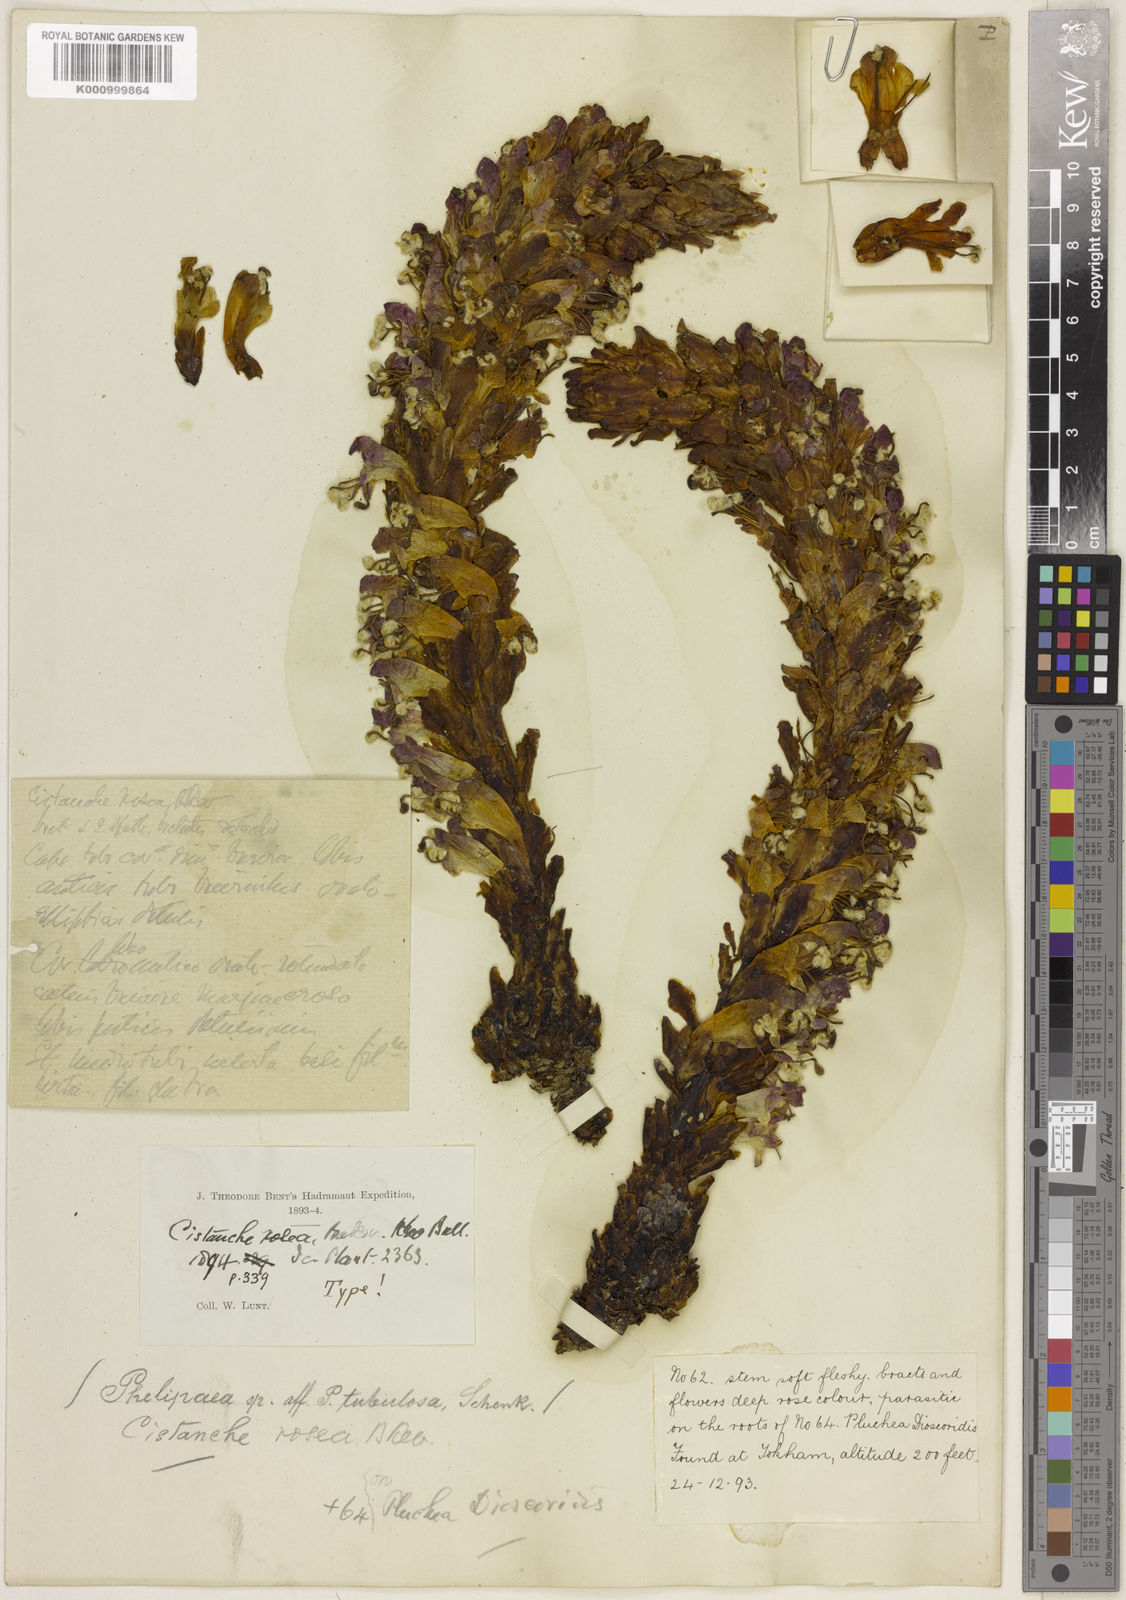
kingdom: Plantae
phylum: Tracheophyta
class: Magnoliopsida
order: Lamiales
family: Orobanchaceae
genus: Cistanche
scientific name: Cistanche rosea
